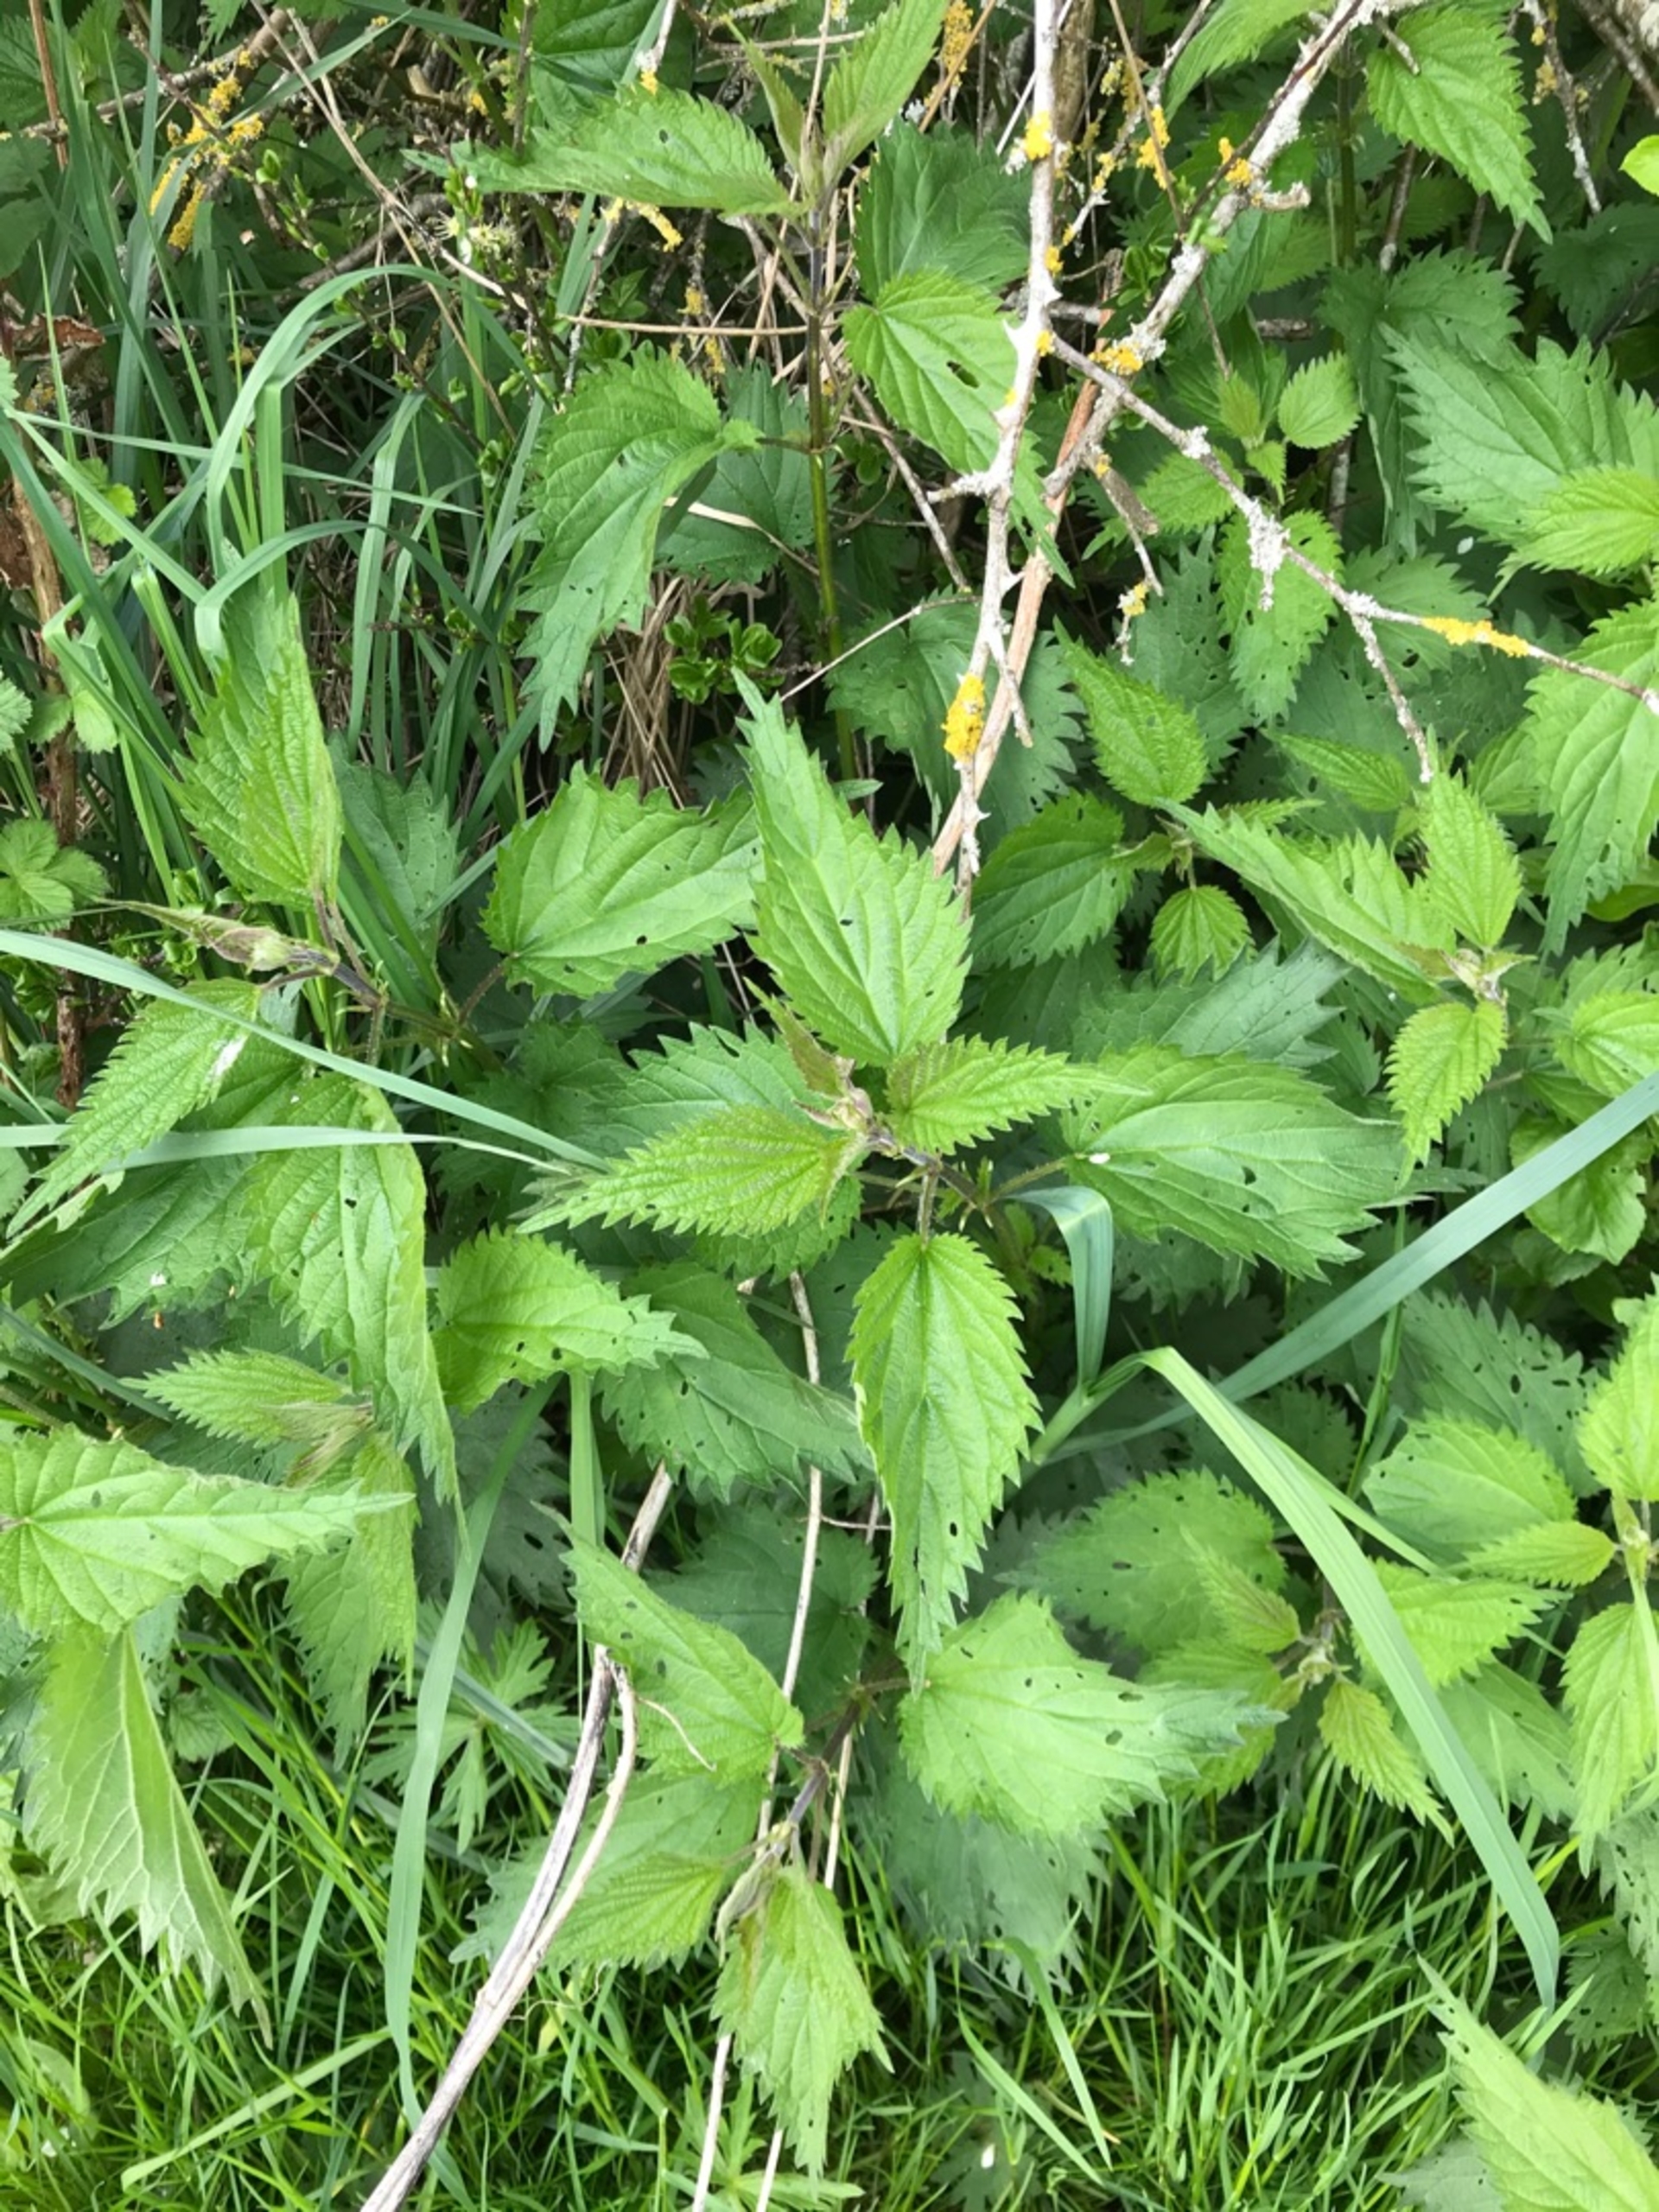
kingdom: Plantae
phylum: Tracheophyta
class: Magnoliopsida
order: Rosales
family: Urticaceae
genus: Urtica
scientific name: Urtica dioica
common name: Stor nælde
